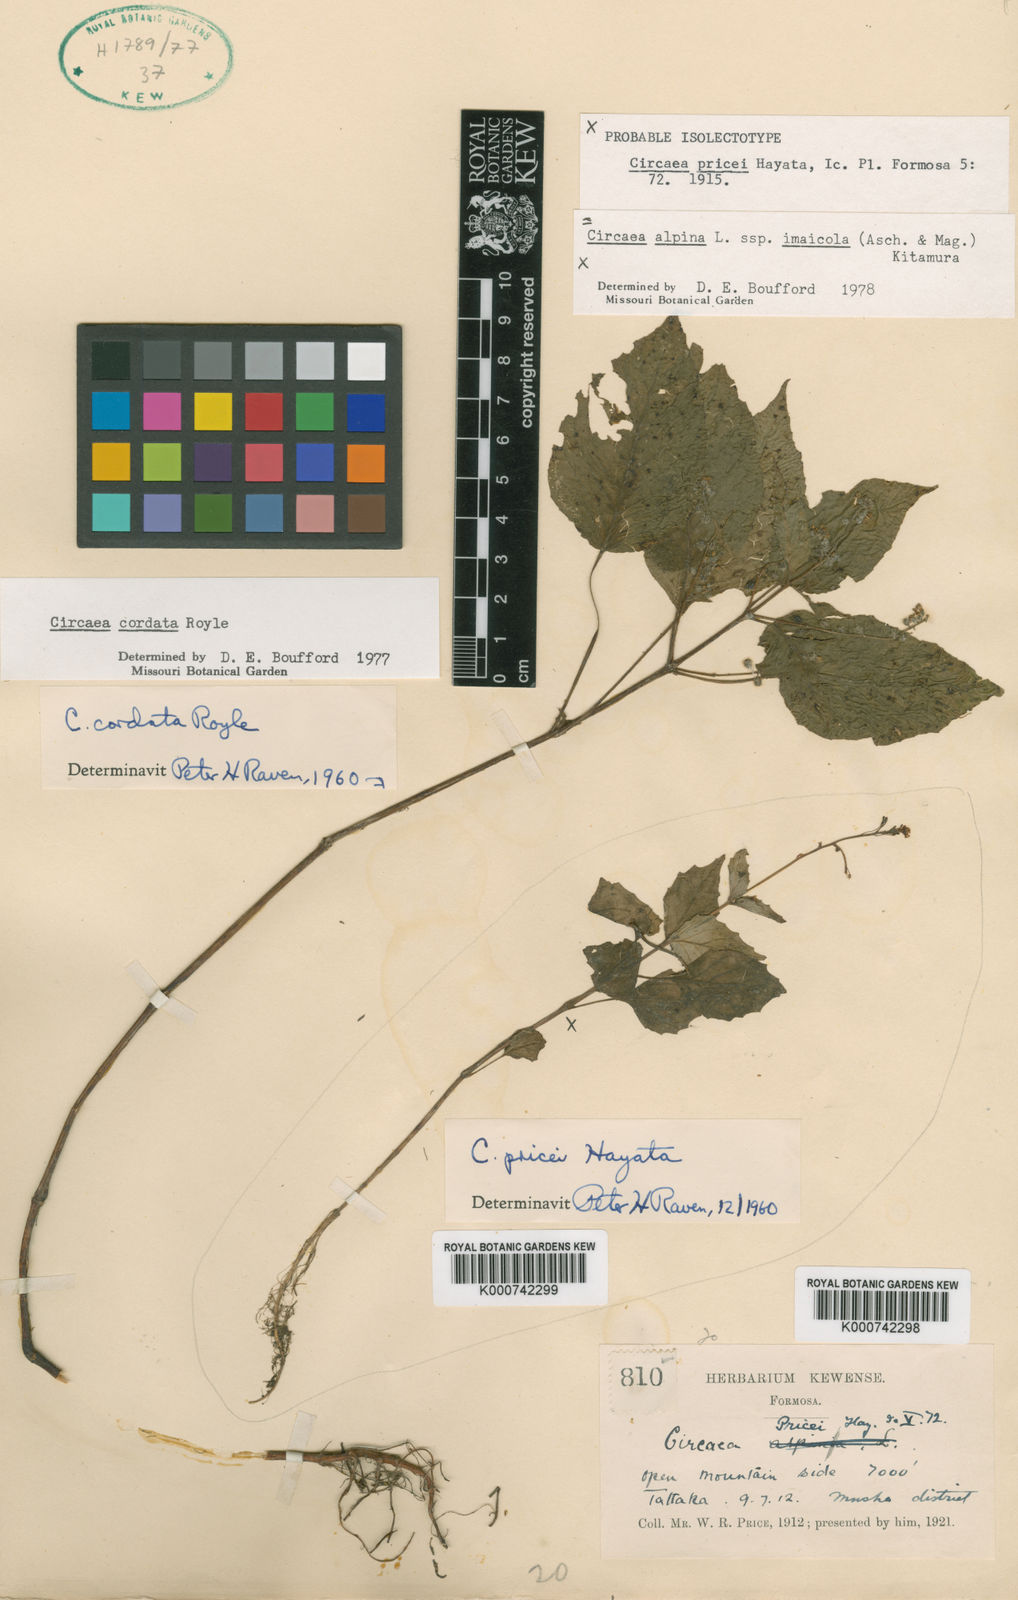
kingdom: Plantae
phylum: Tracheophyta
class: Magnoliopsida
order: Myrtales
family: Onagraceae
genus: Circaea
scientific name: Circaea alpina
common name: Alpine enchanter's-nightshade
